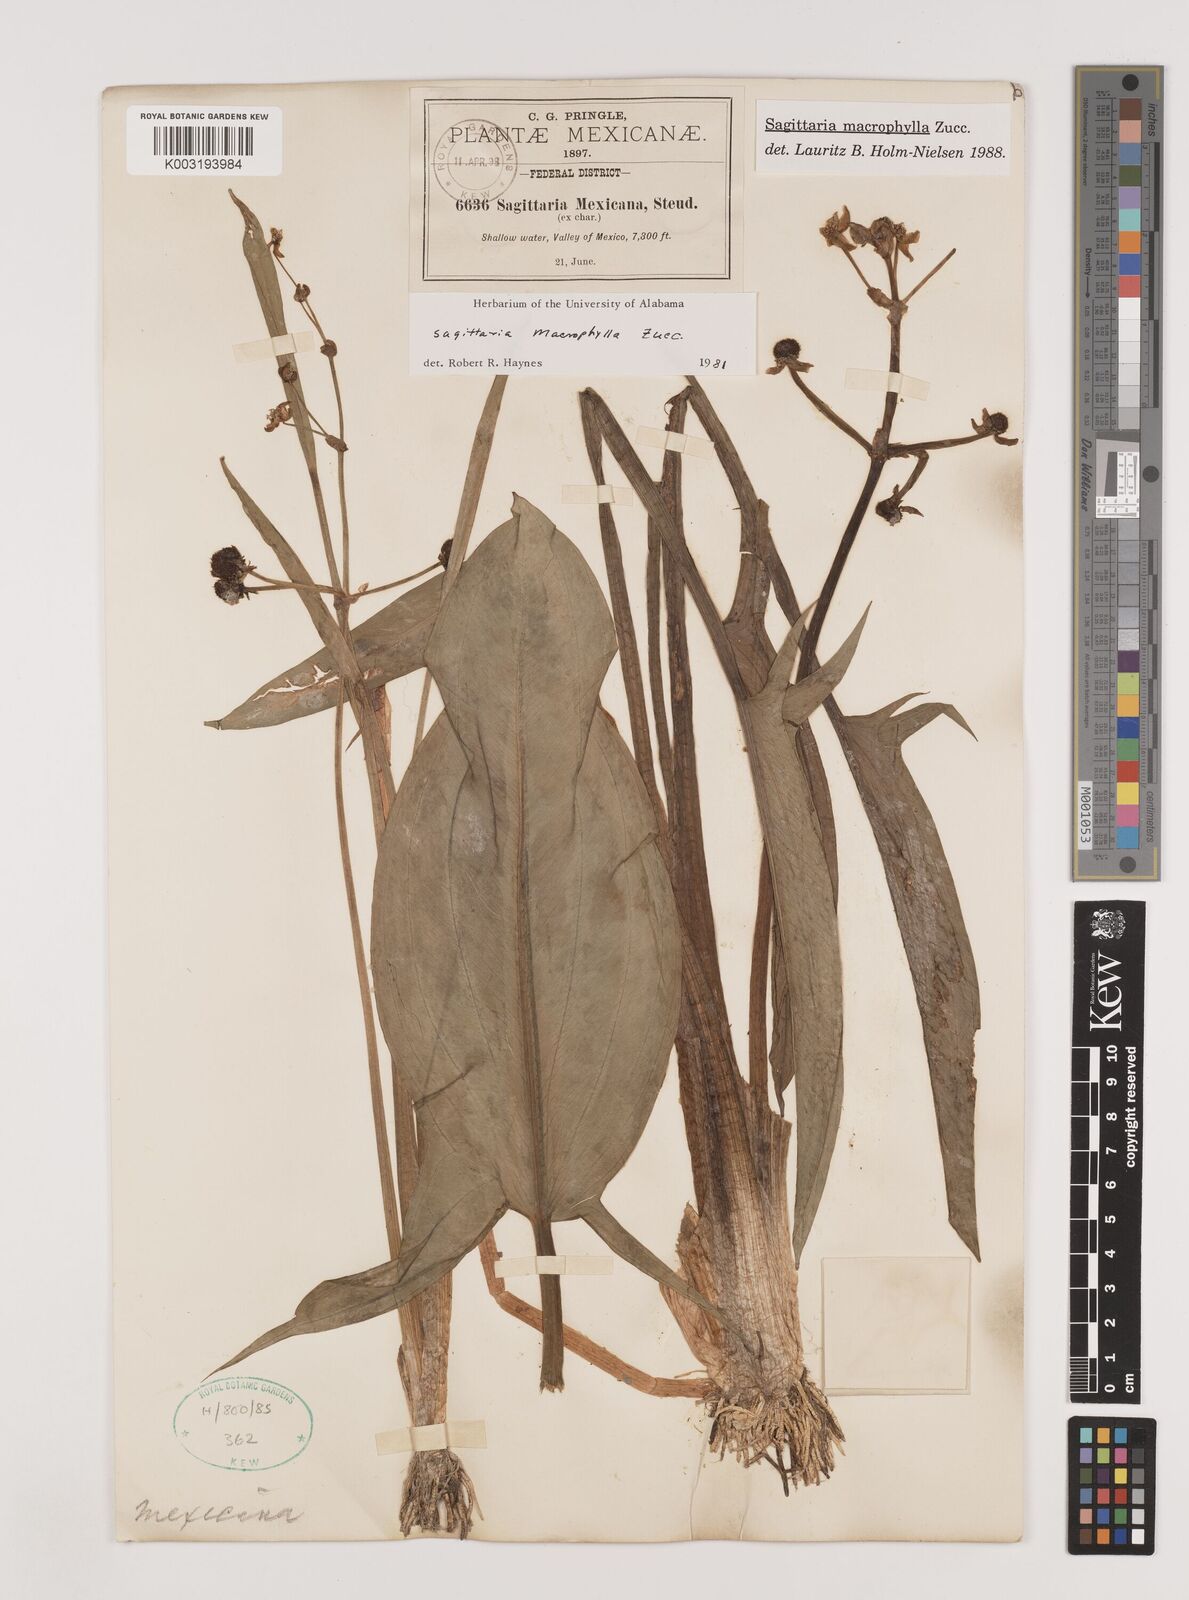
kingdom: Plantae
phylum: Tracheophyta
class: Liliopsida
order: Alismatales
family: Alismataceae
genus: Sagittaria
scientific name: Sagittaria macrophylla
